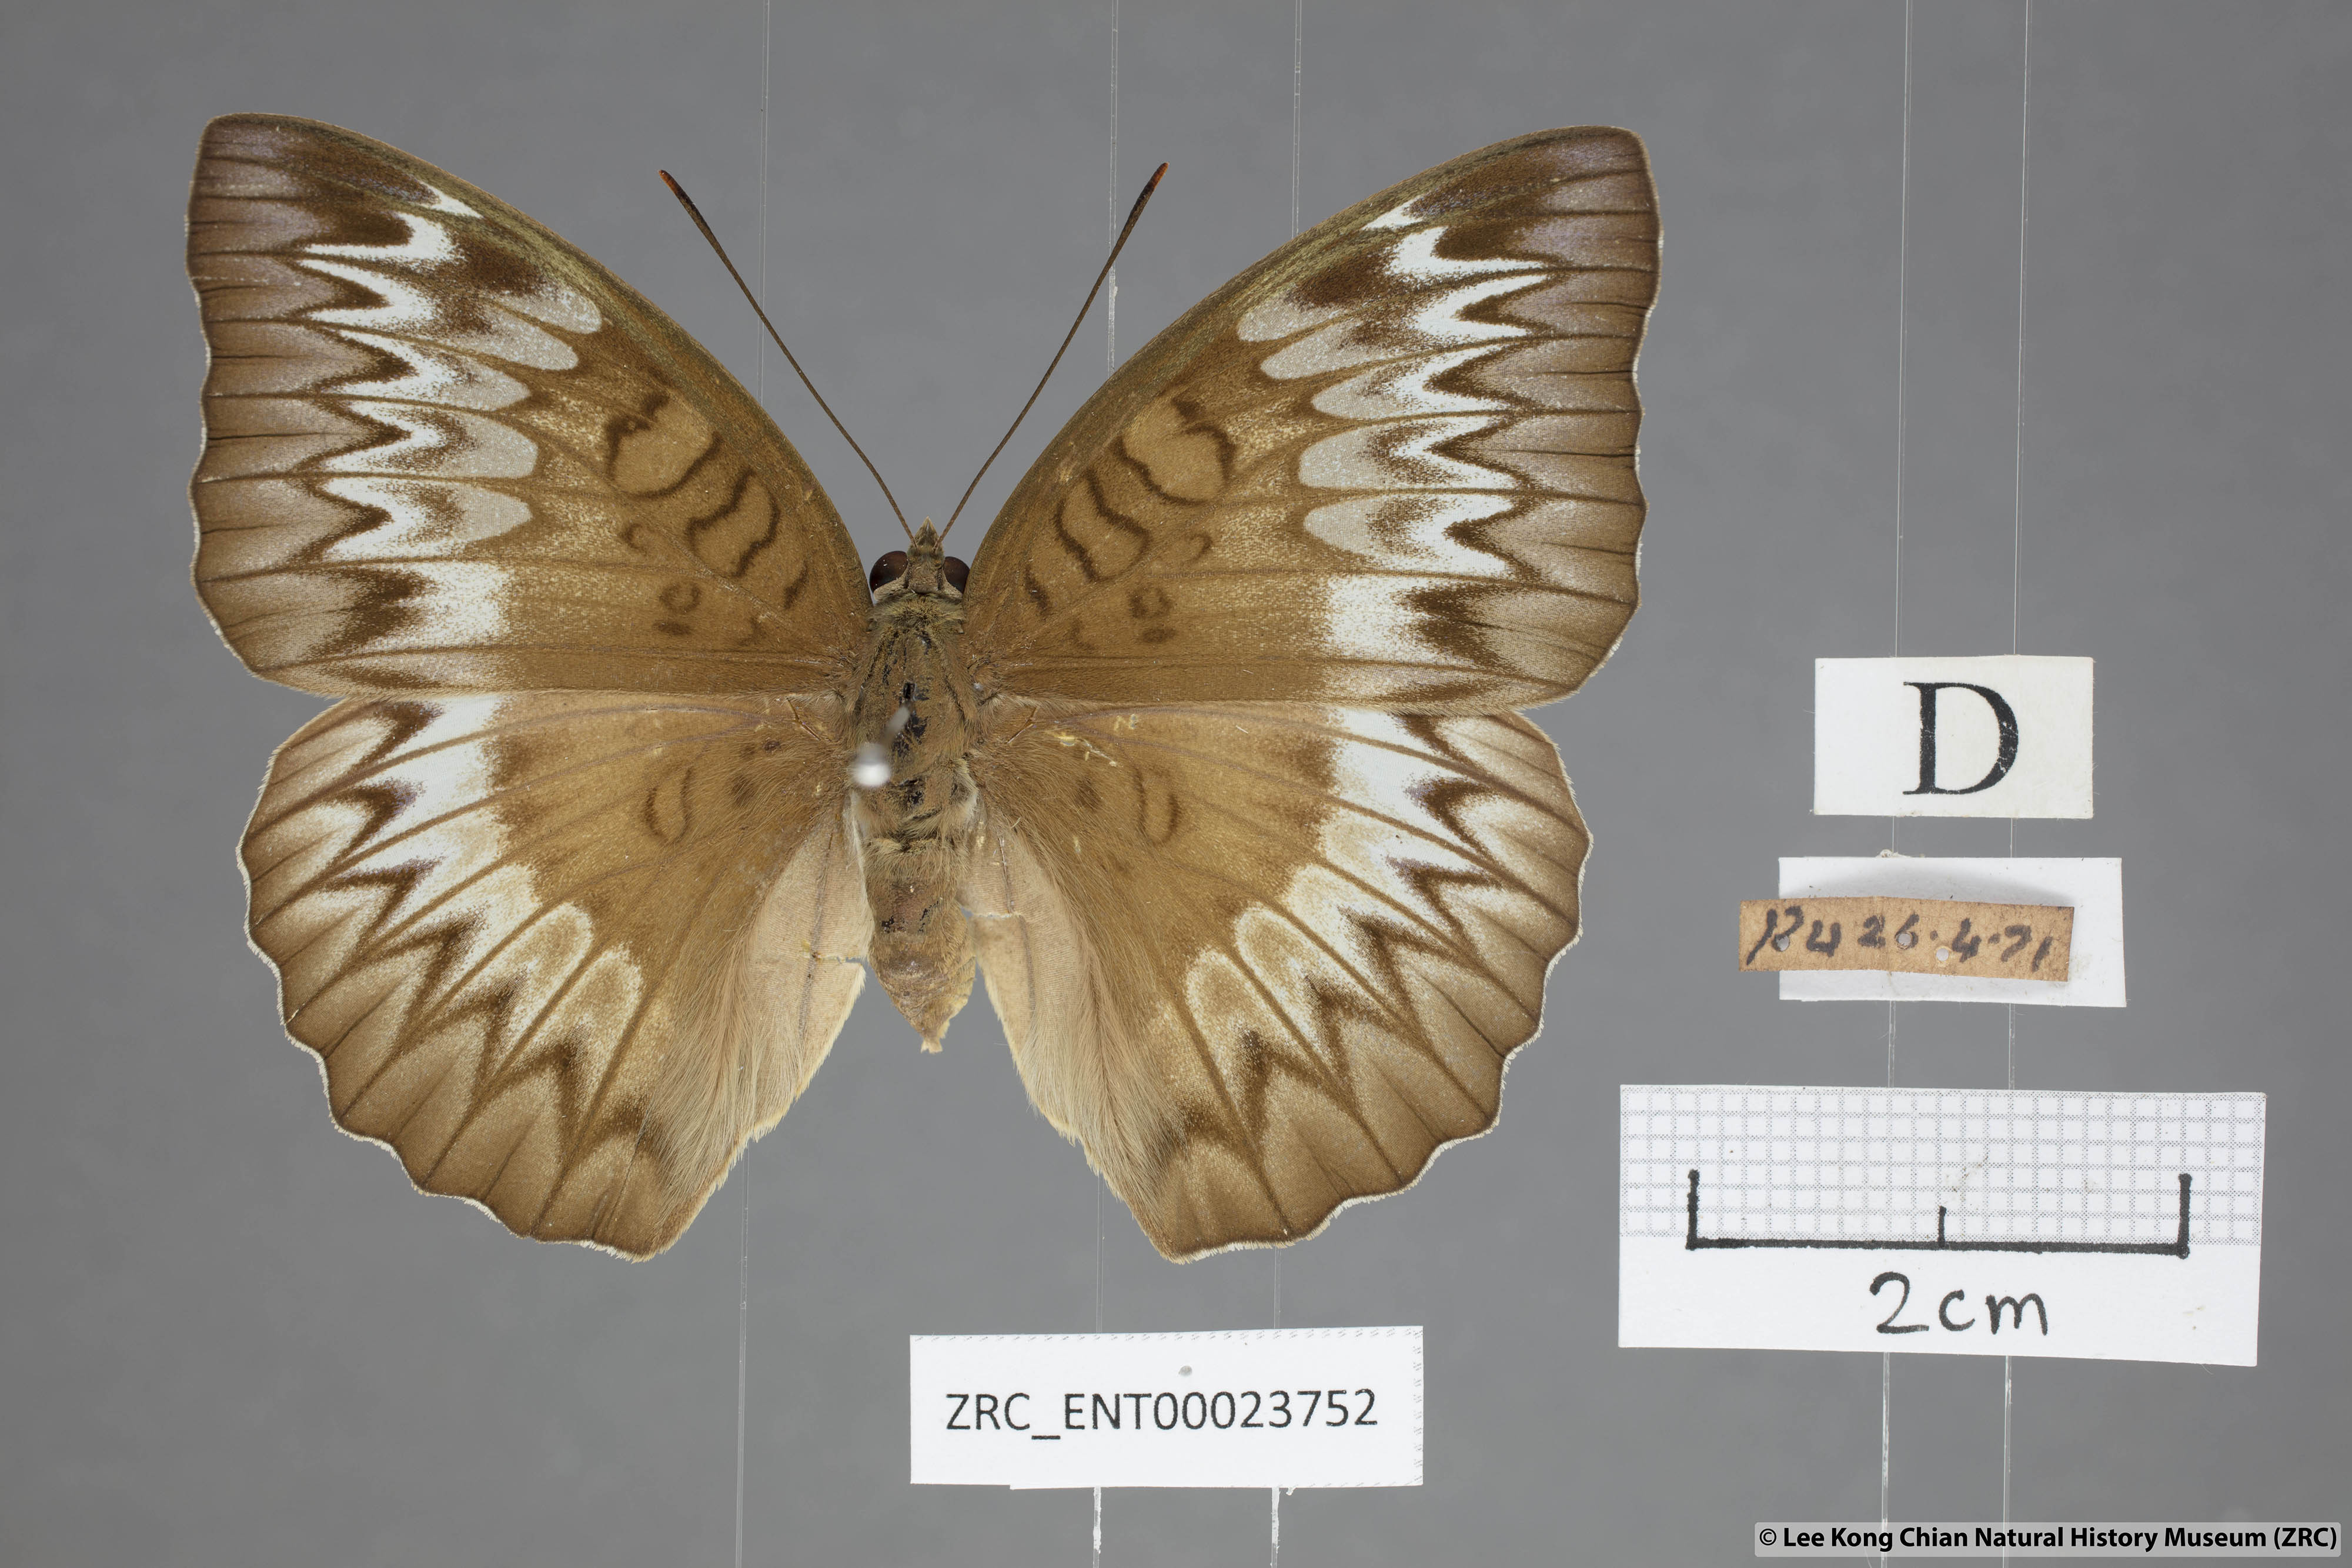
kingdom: Animalia
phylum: Arthropoda
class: Insecta
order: Lepidoptera
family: Nymphalidae
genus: Euthalia
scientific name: Euthalia monina
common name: Powdered baron
